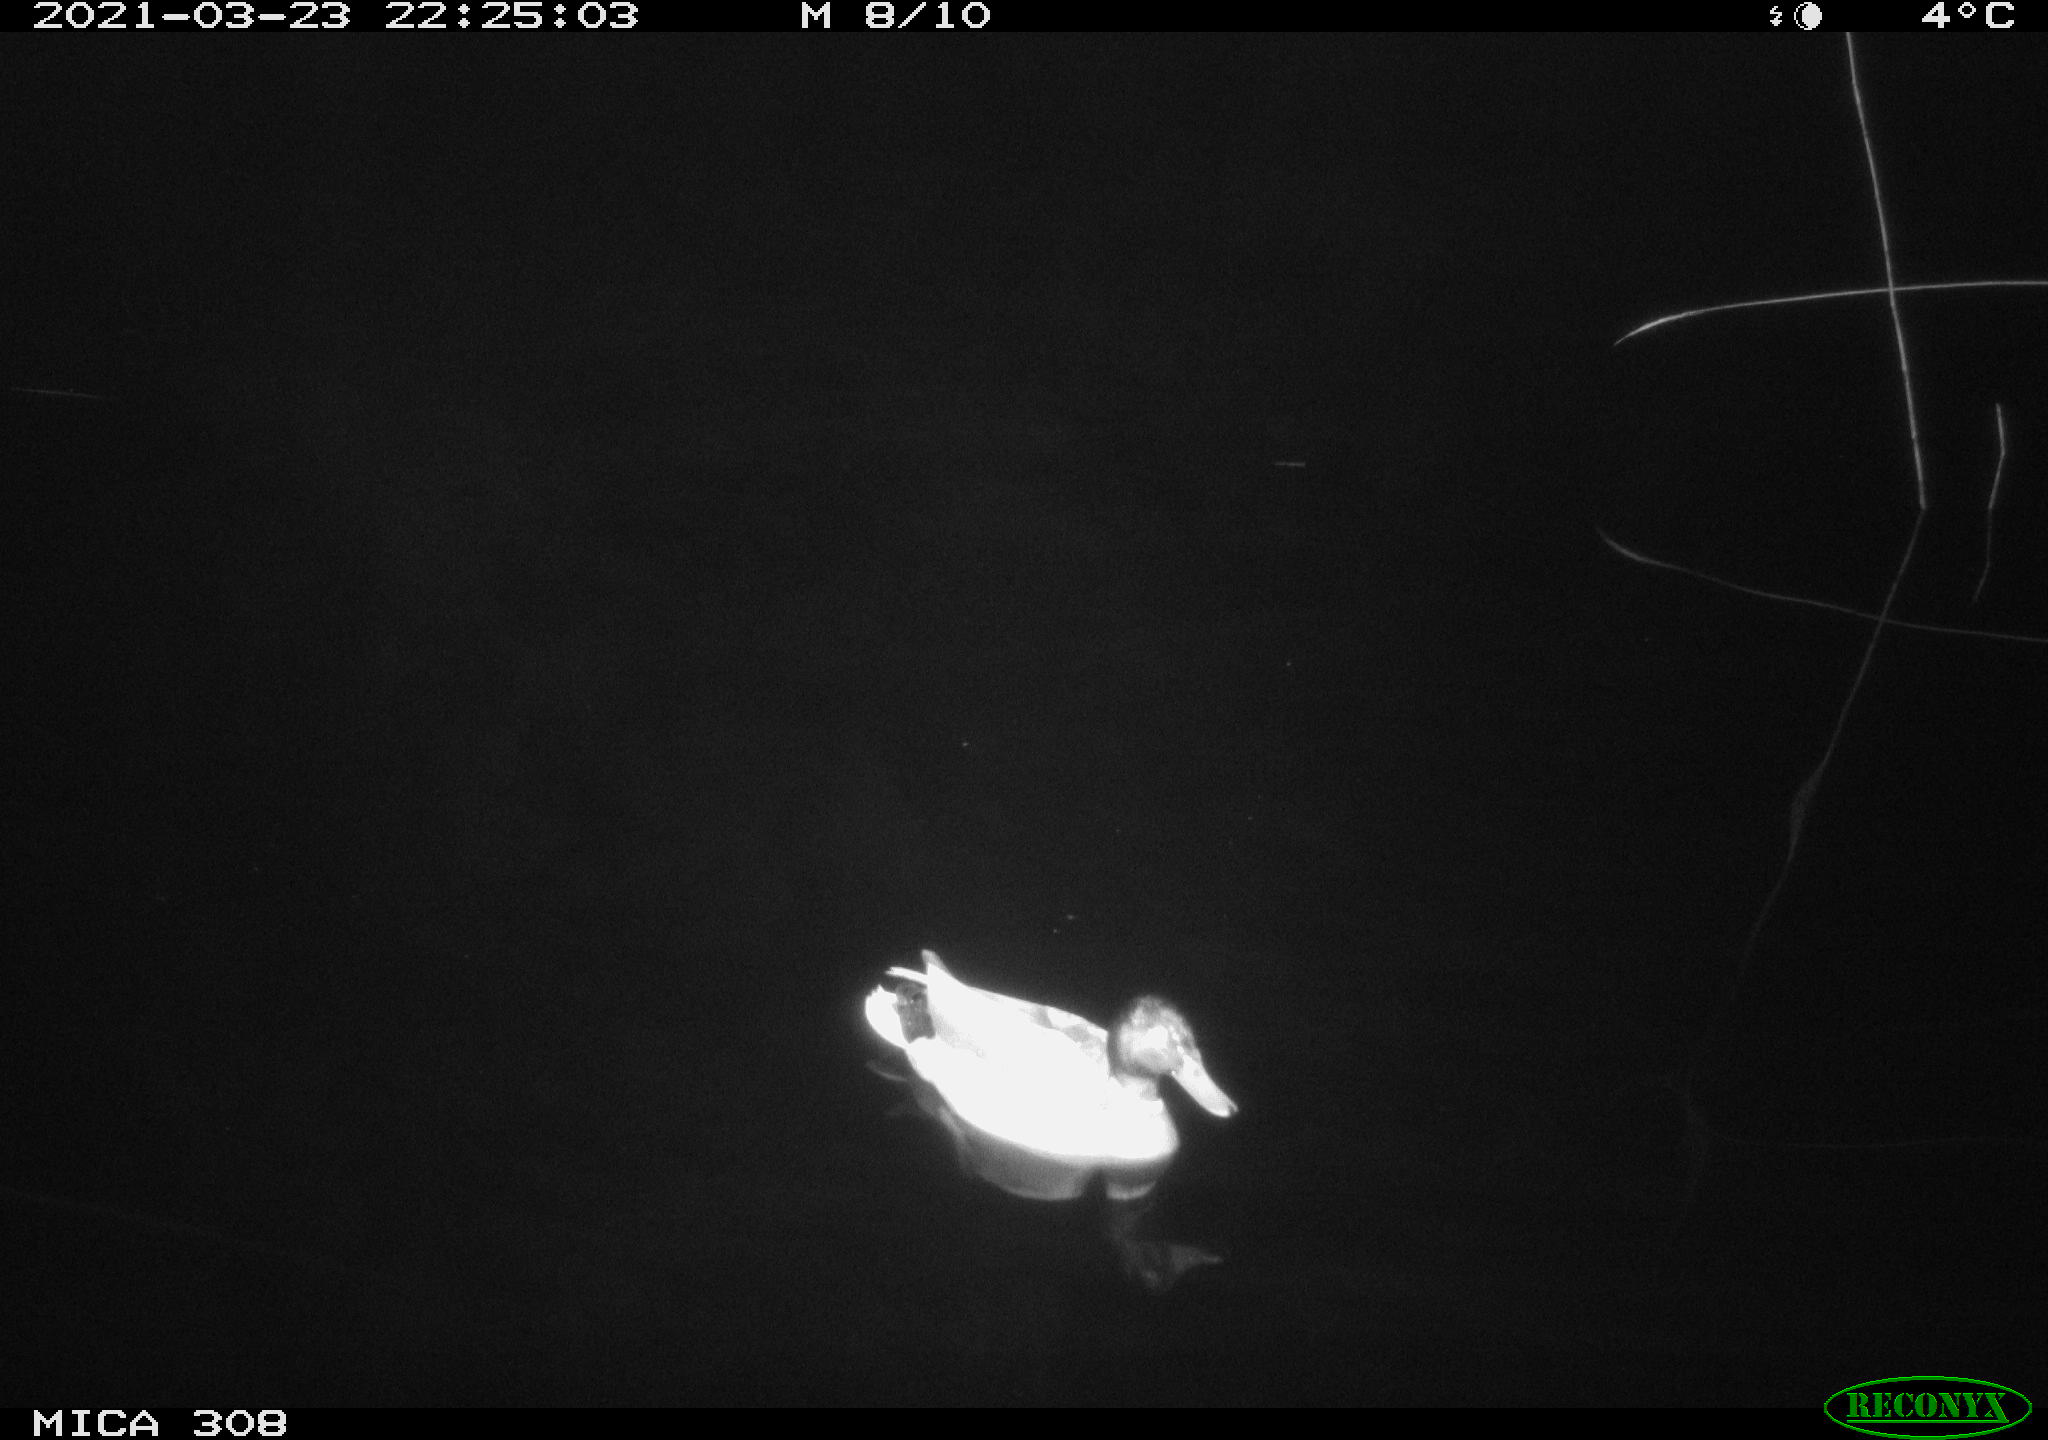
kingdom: Animalia
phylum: Chordata
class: Aves
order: Anseriformes
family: Anatidae
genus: Anas
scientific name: Anas platyrhynchos
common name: Mallard
